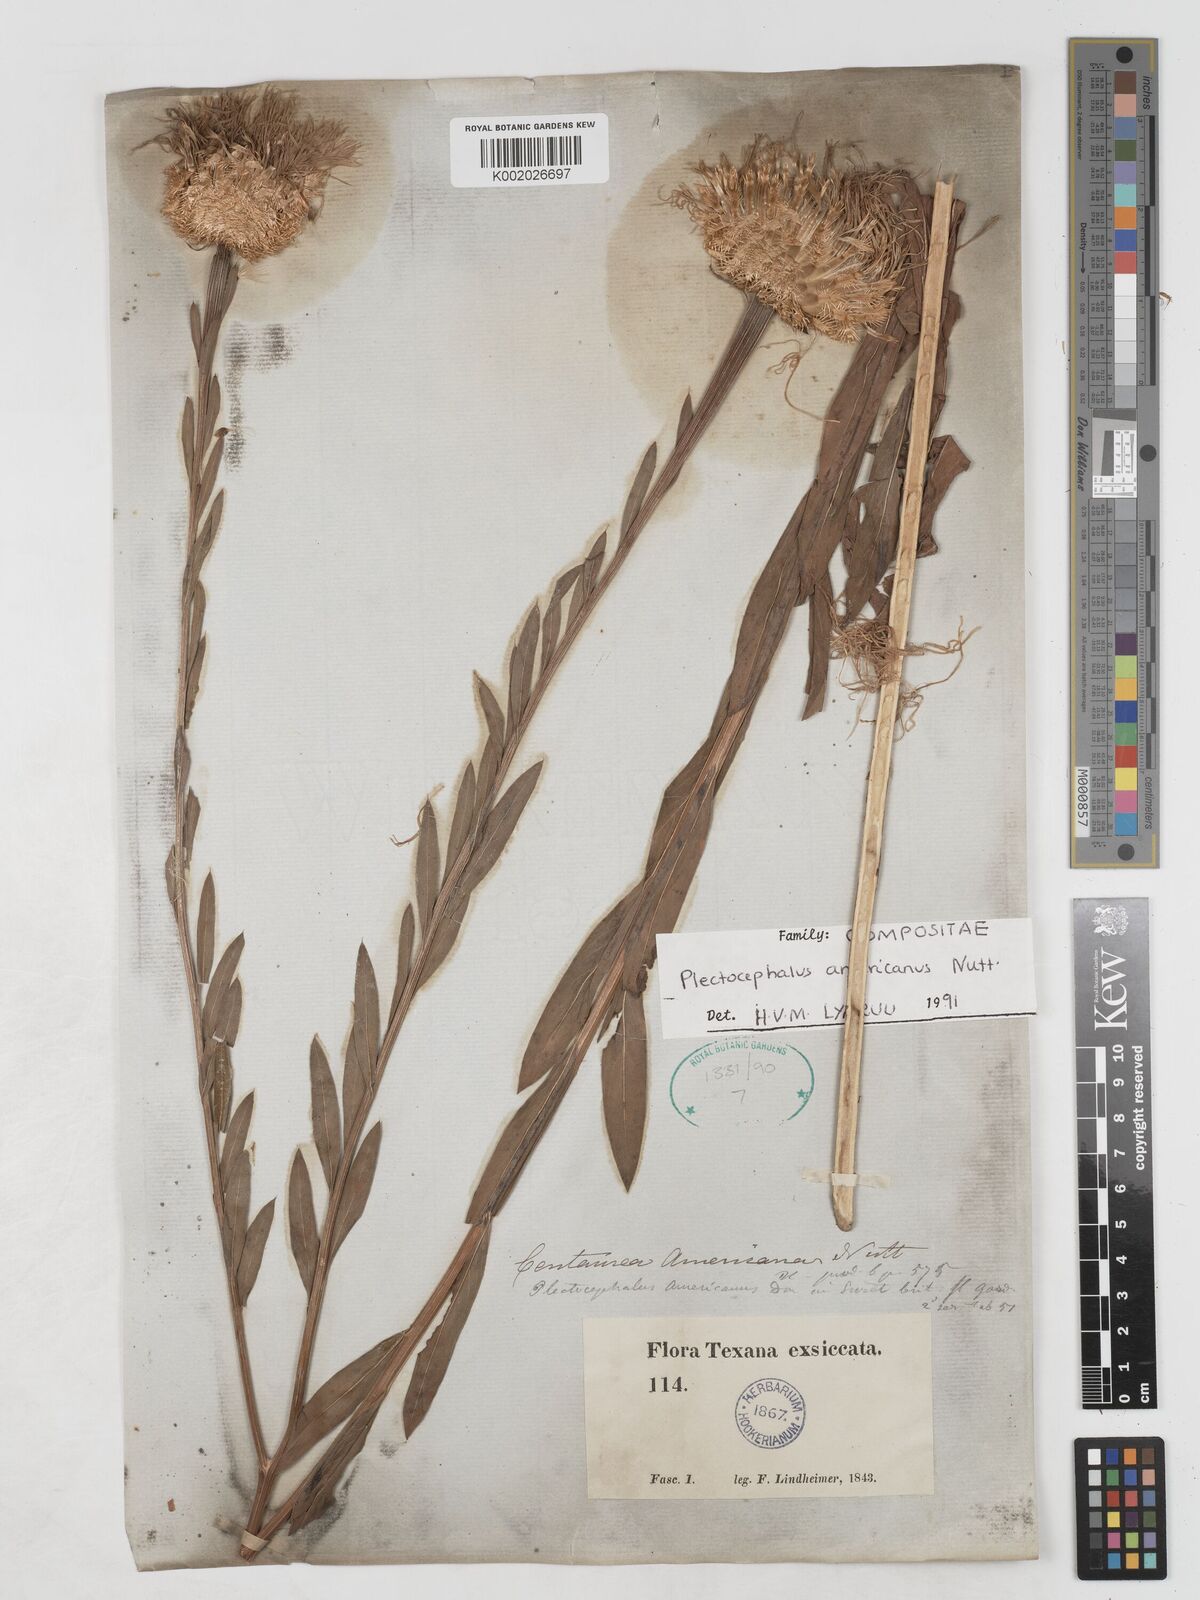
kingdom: Plantae
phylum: Tracheophyta
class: Magnoliopsida
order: Asterales
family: Asteraceae
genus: Plectocephalus
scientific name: Plectocephalus americanus
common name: American basket-flower
